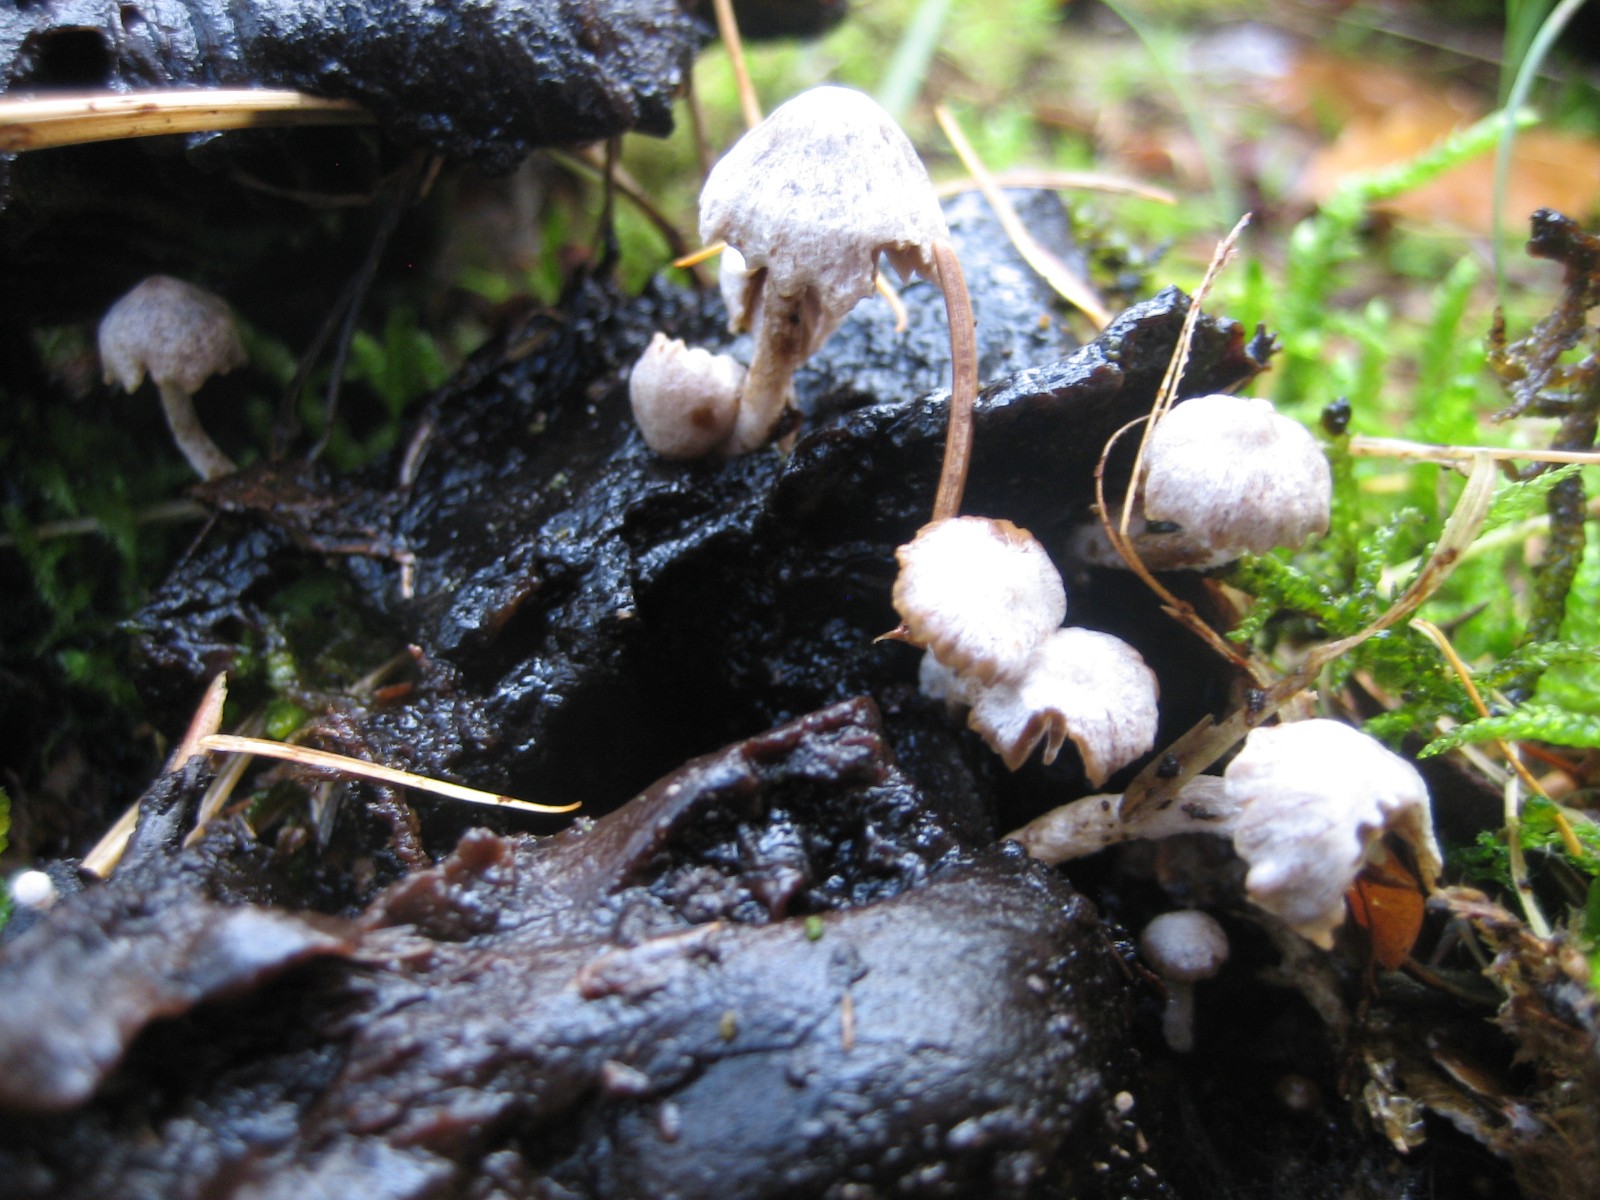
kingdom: Fungi
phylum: Basidiomycota
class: Agaricomycetes
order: Agaricales
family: Lyophyllaceae
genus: Asterophora
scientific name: Asterophora parasitica
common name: grå snyltehat
